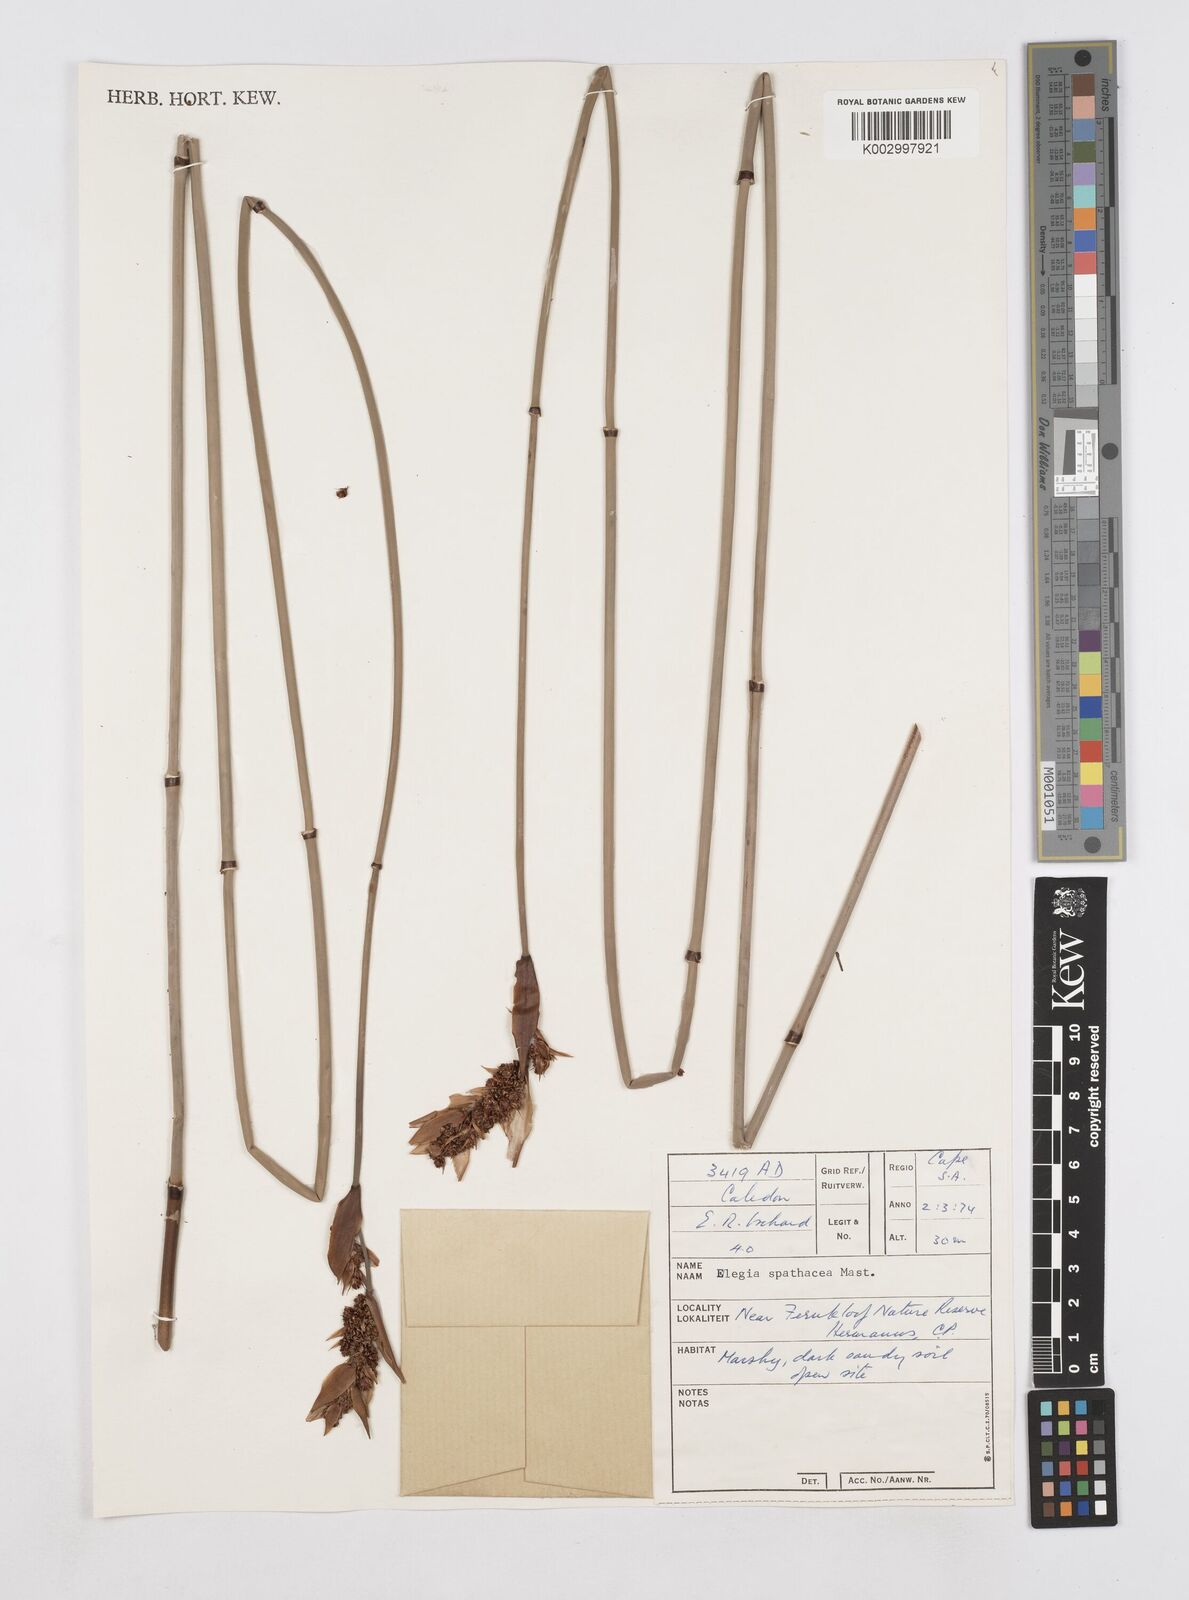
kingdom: Plantae
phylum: Tracheophyta
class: Liliopsida
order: Poales
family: Restionaceae
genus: Elegia
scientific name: Elegia spathacea
